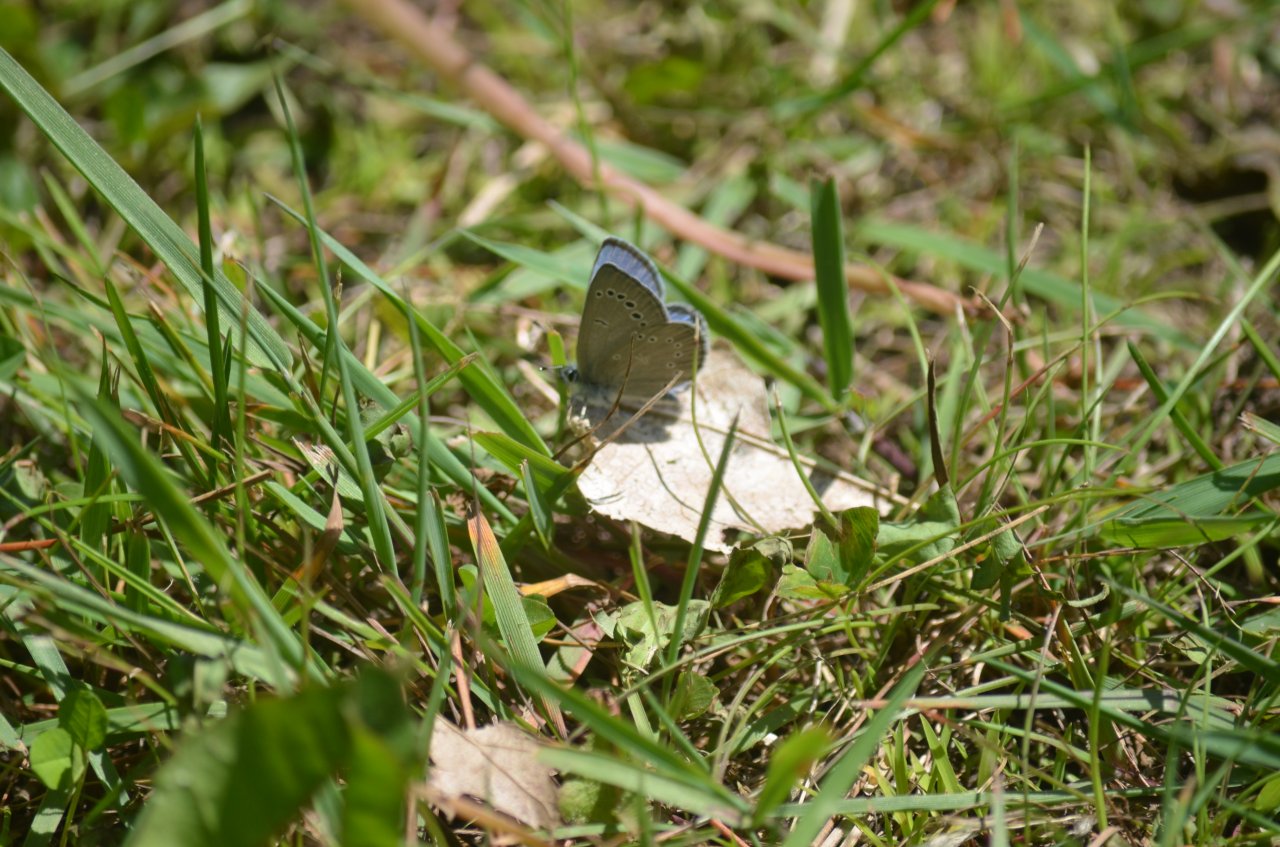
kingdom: Animalia
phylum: Arthropoda
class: Insecta
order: Lepidoptera
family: Lycaenidae
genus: Glaucopsyche
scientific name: Glaucopsyche lygdamus
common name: Silvery Blue
